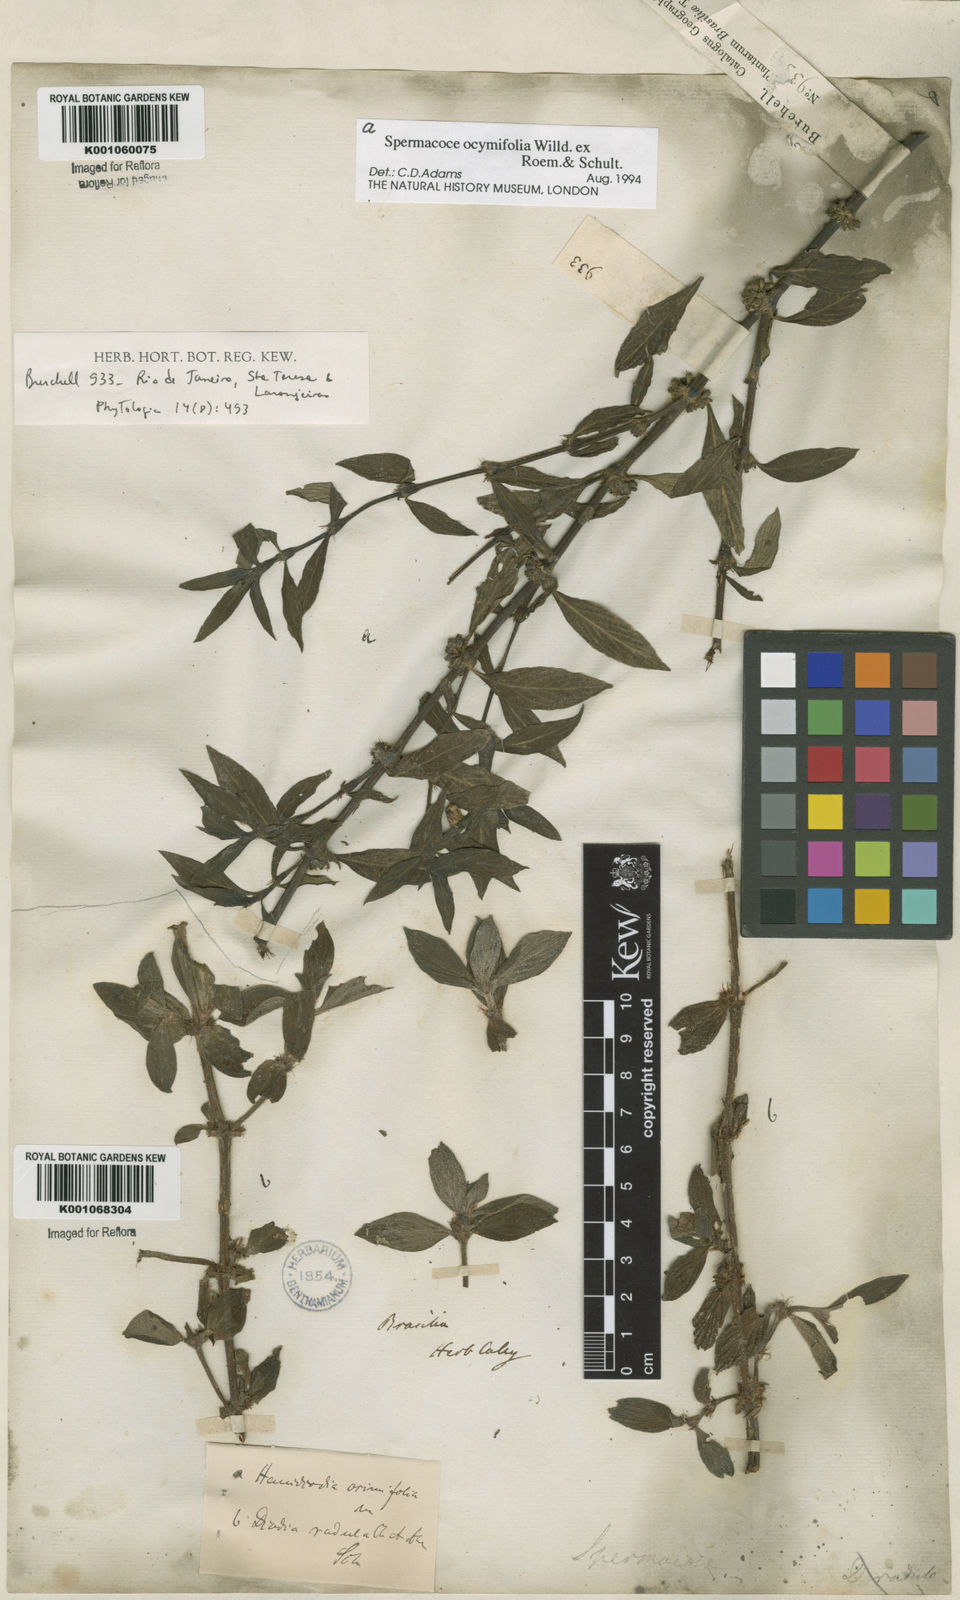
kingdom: Plantae
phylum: Tracheophyta
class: Magnoliopsida
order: Gentianales
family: Rubiaceae
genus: Spermacoce
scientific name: Spermacoce
